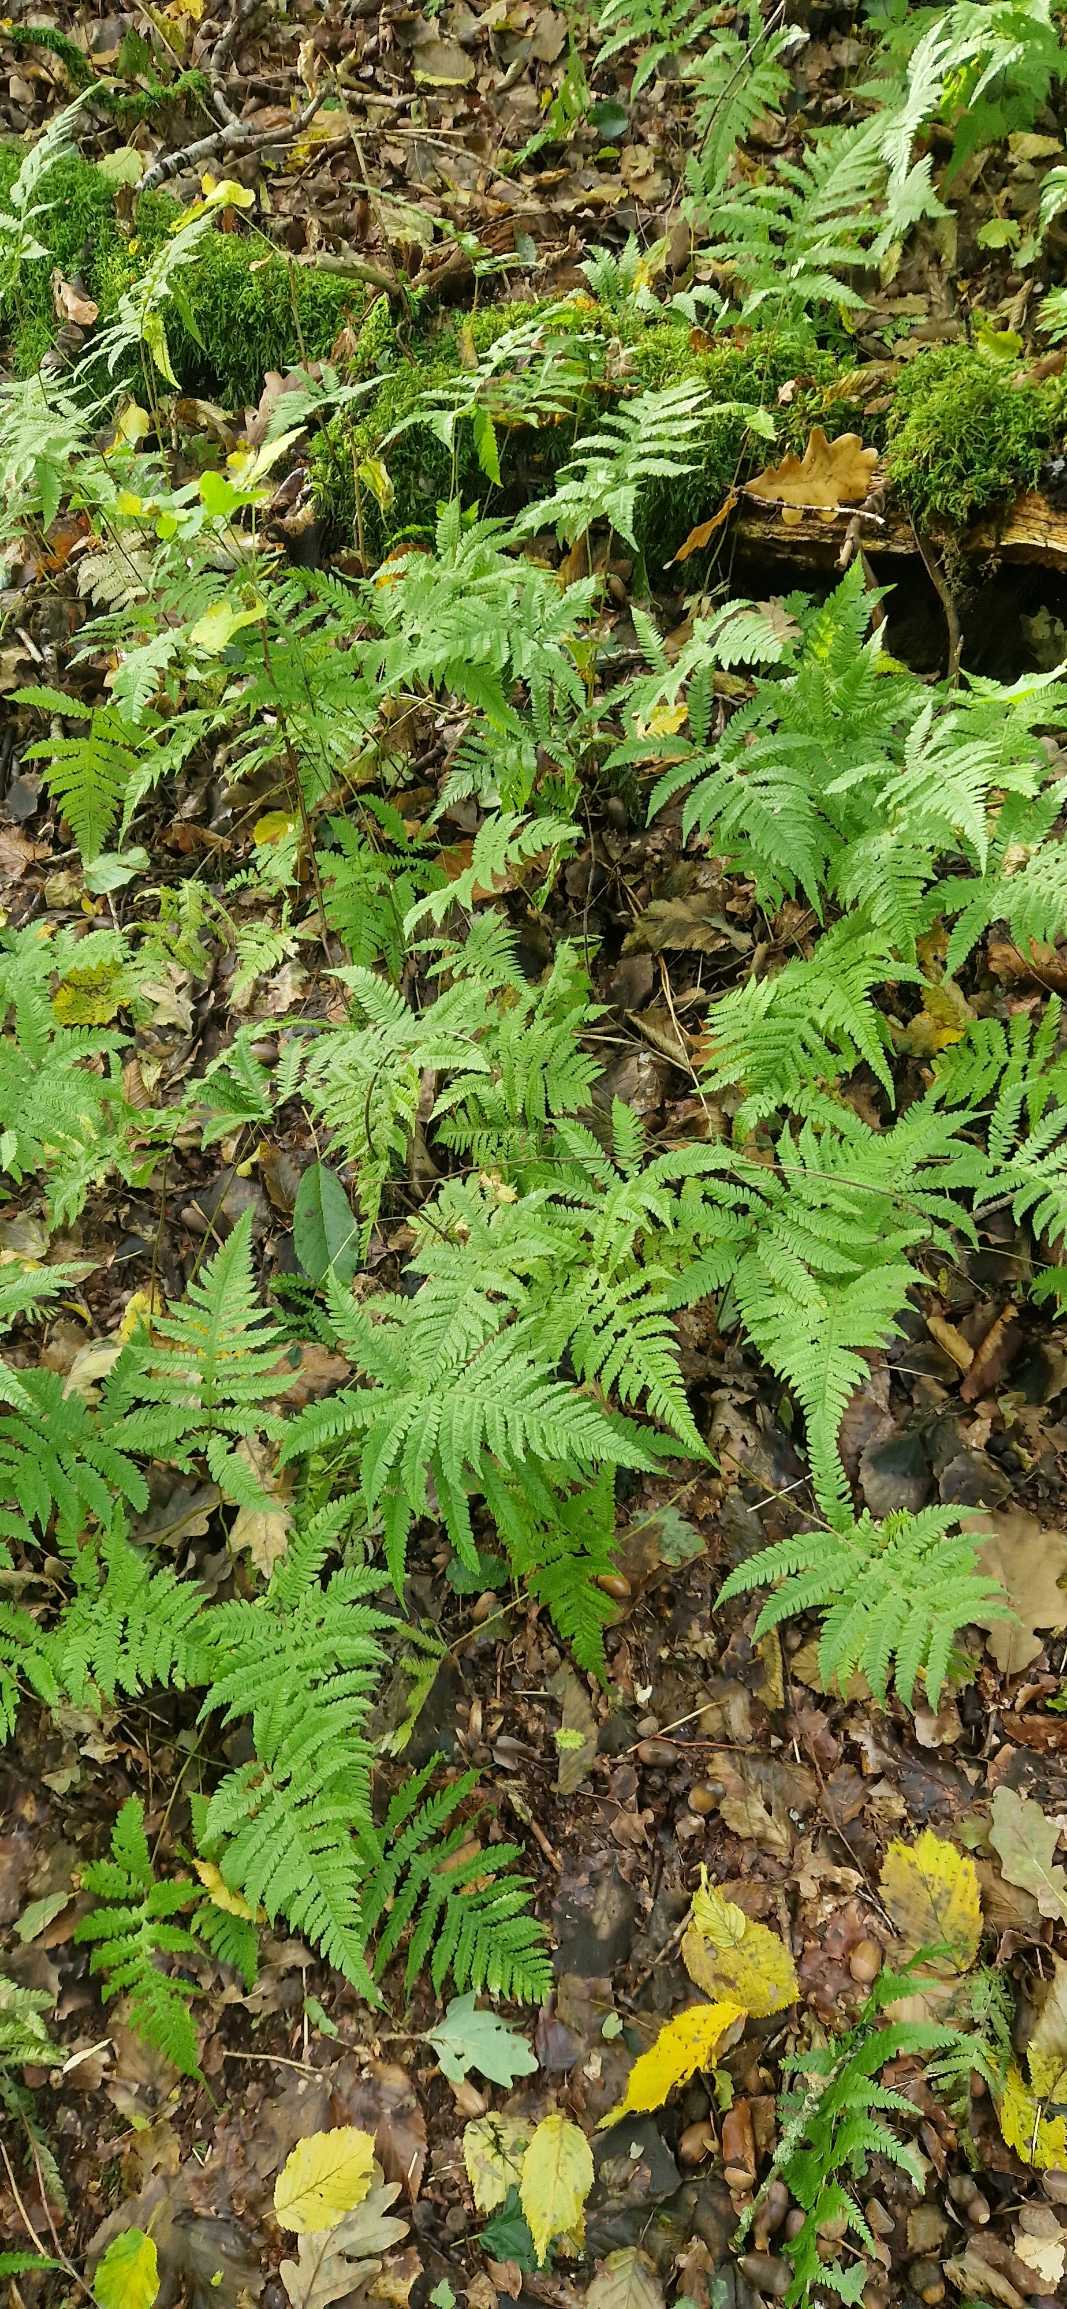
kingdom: Plantae
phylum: Tracheophyta
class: Polypodiopsida
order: Polypodiales
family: Thelypteridaceae
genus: Phegopteris
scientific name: Phegopteris connectilis
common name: Dunet egebregne
